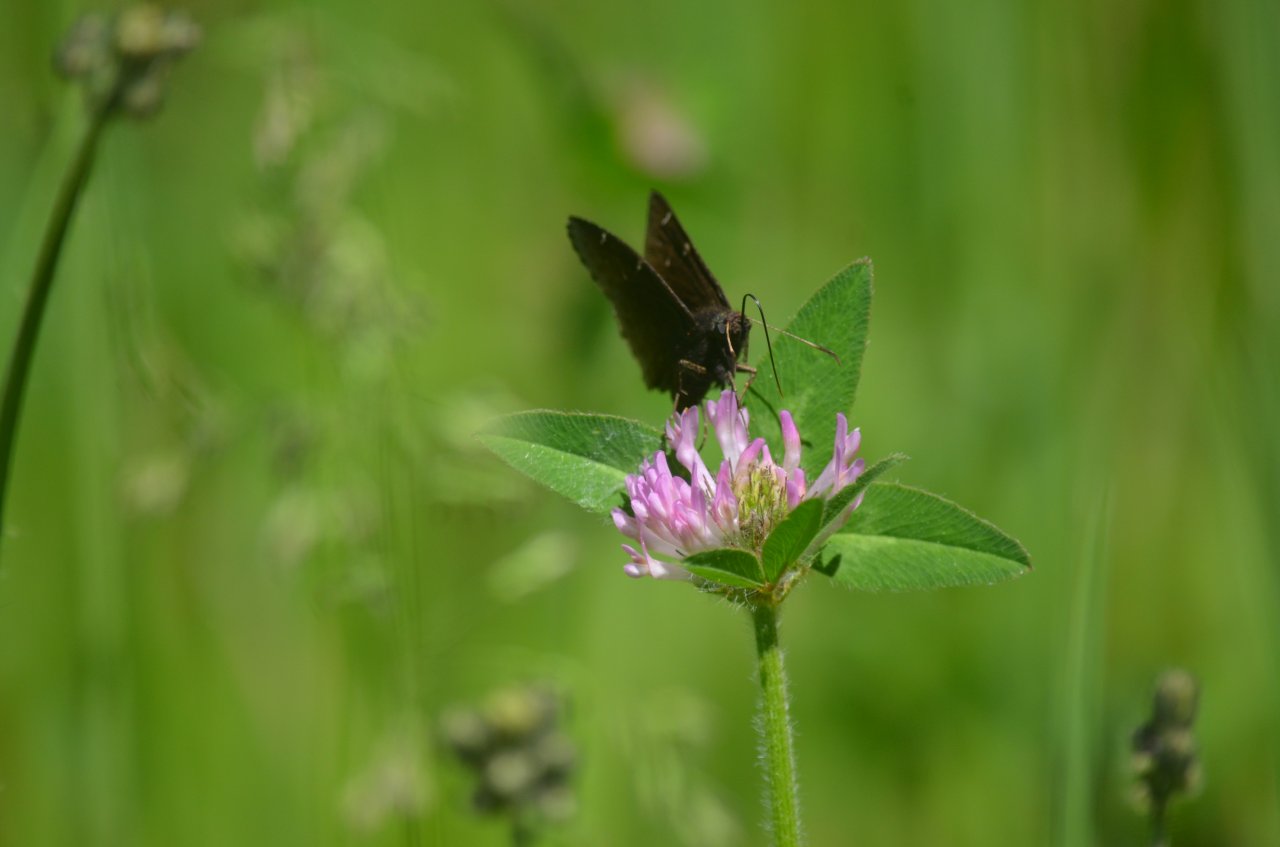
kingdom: Animalia
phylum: Arthropoda
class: Insecta
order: Lepidoptera
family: Hesperiidae
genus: Autochton
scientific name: Autochton
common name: Northern Cloudywing
